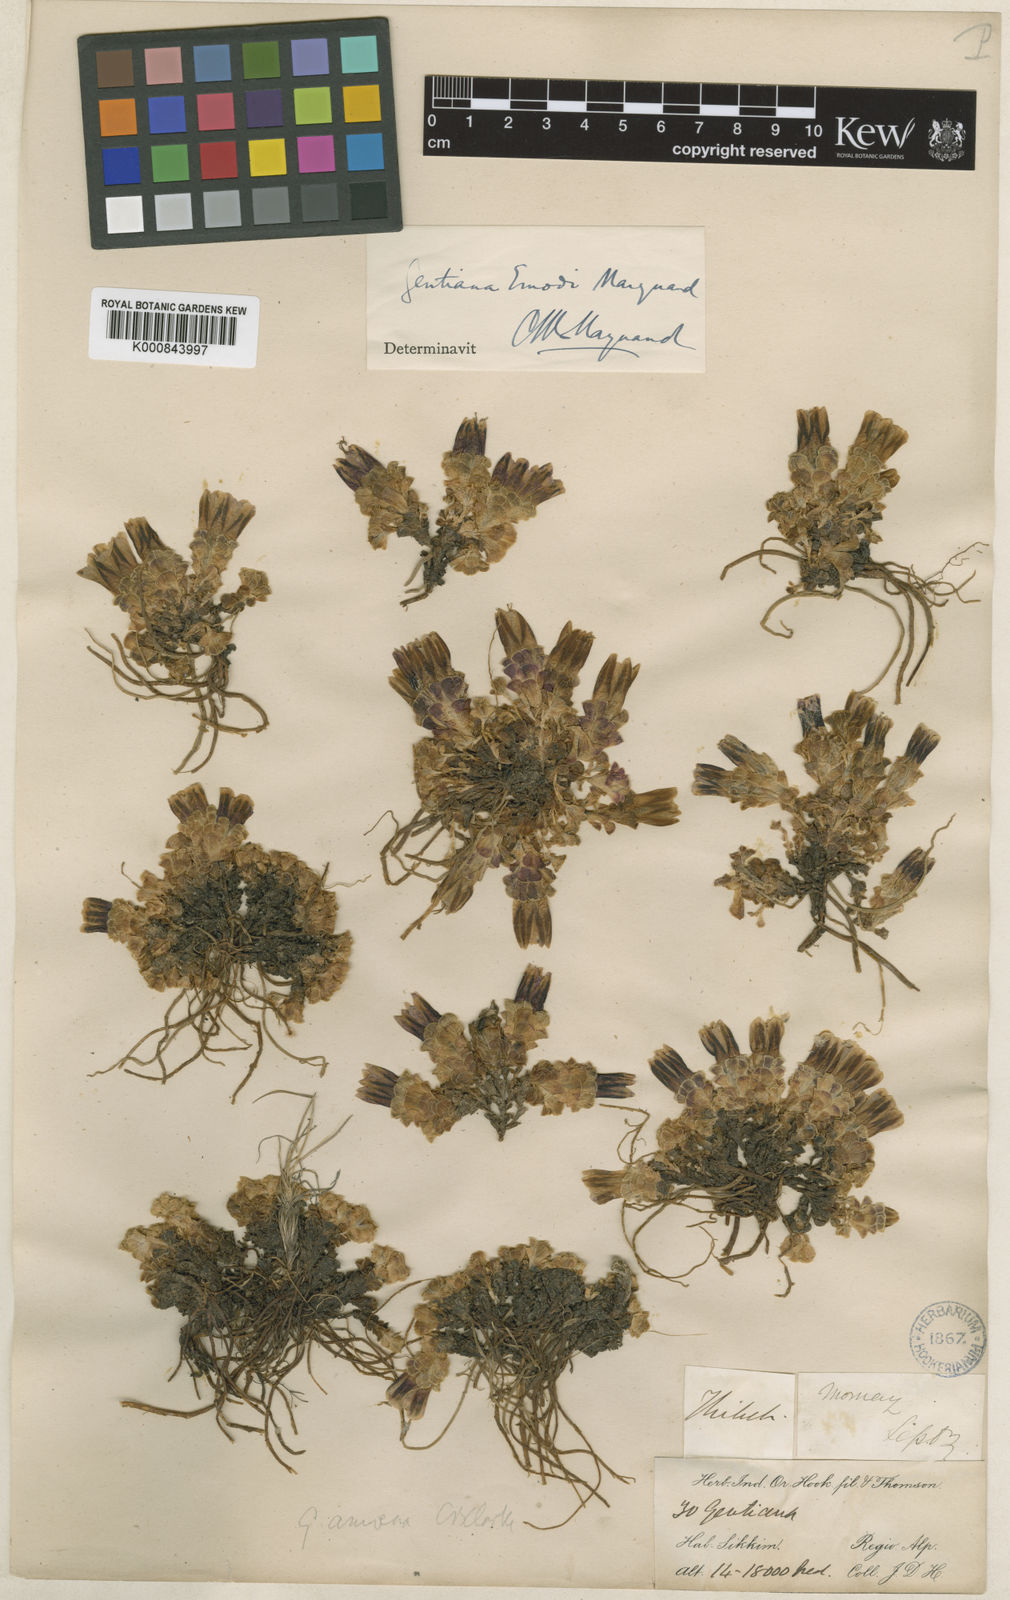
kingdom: Plantae
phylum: Tracheophyta
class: Magnoliopsida
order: Gentianales
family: Gentianaceae
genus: Gentiana
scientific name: Gentiana
